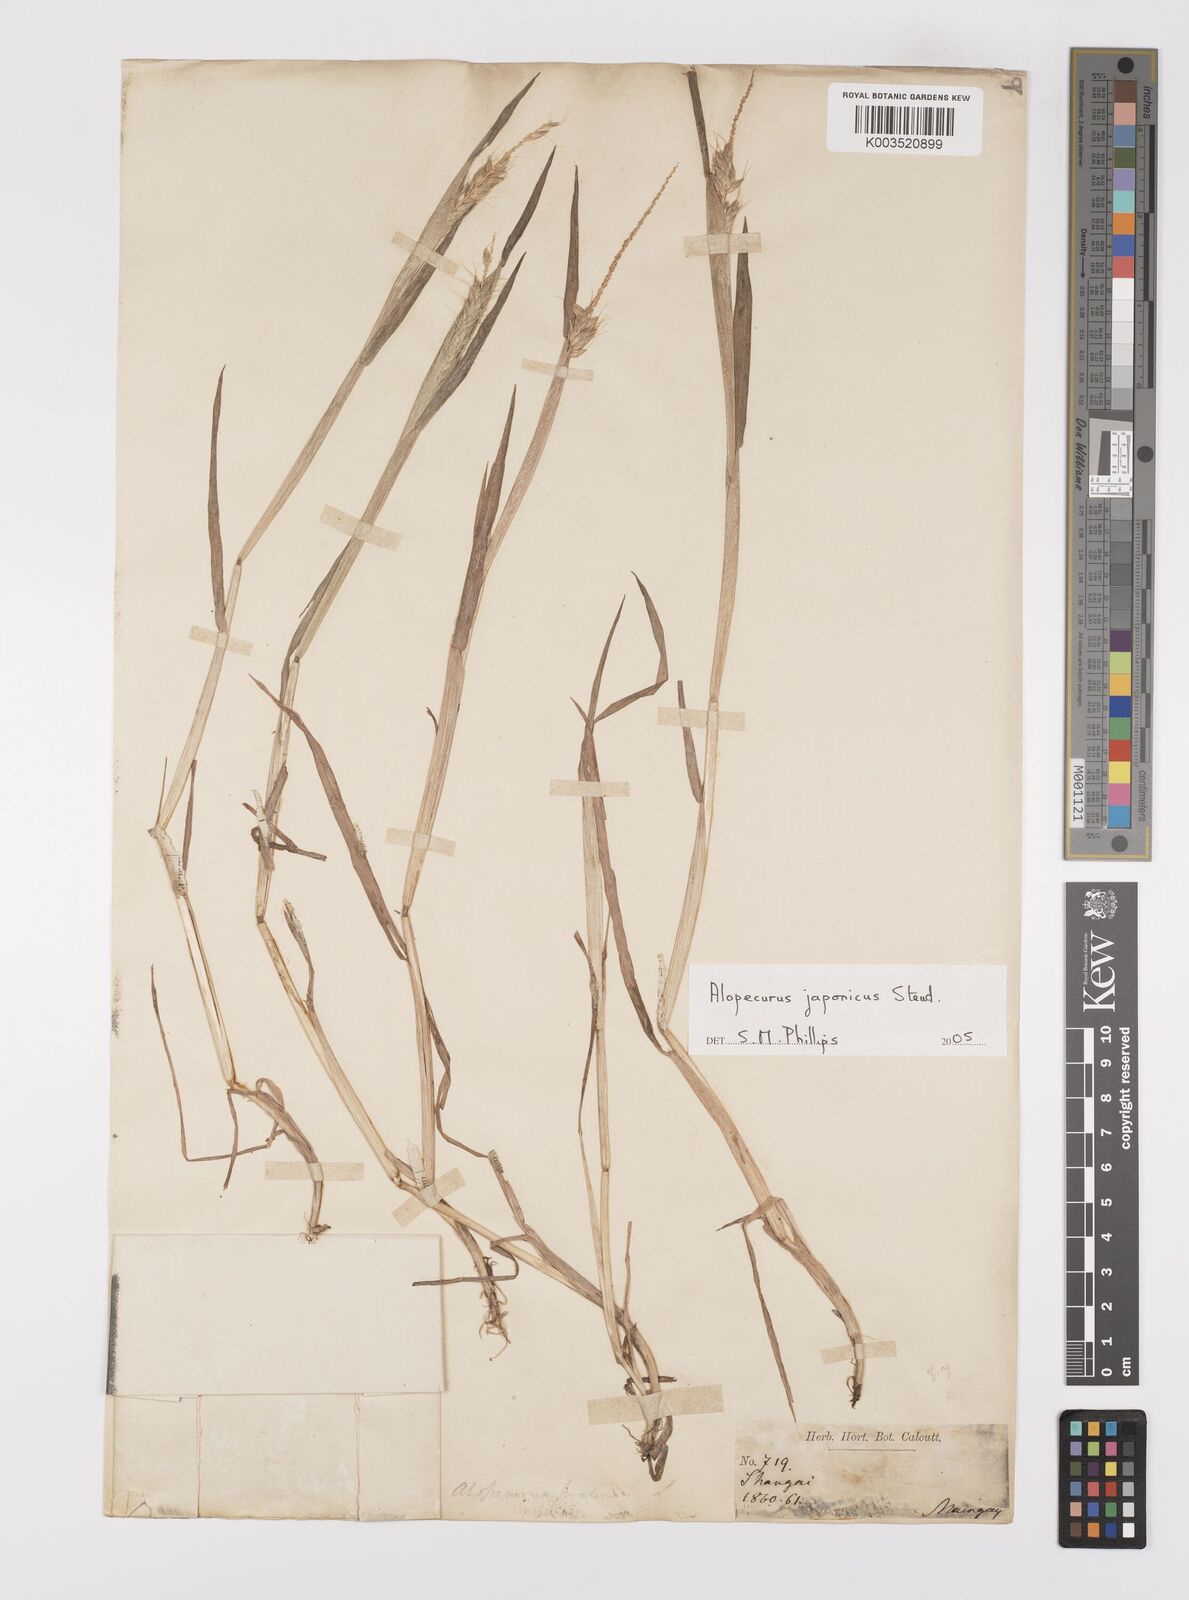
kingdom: Plantae
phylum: Tracheophyta
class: Liliopsida
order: Poales
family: Poaceae
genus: Alopecurus
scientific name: Alopecurus japonicus
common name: Japanese foxtail
